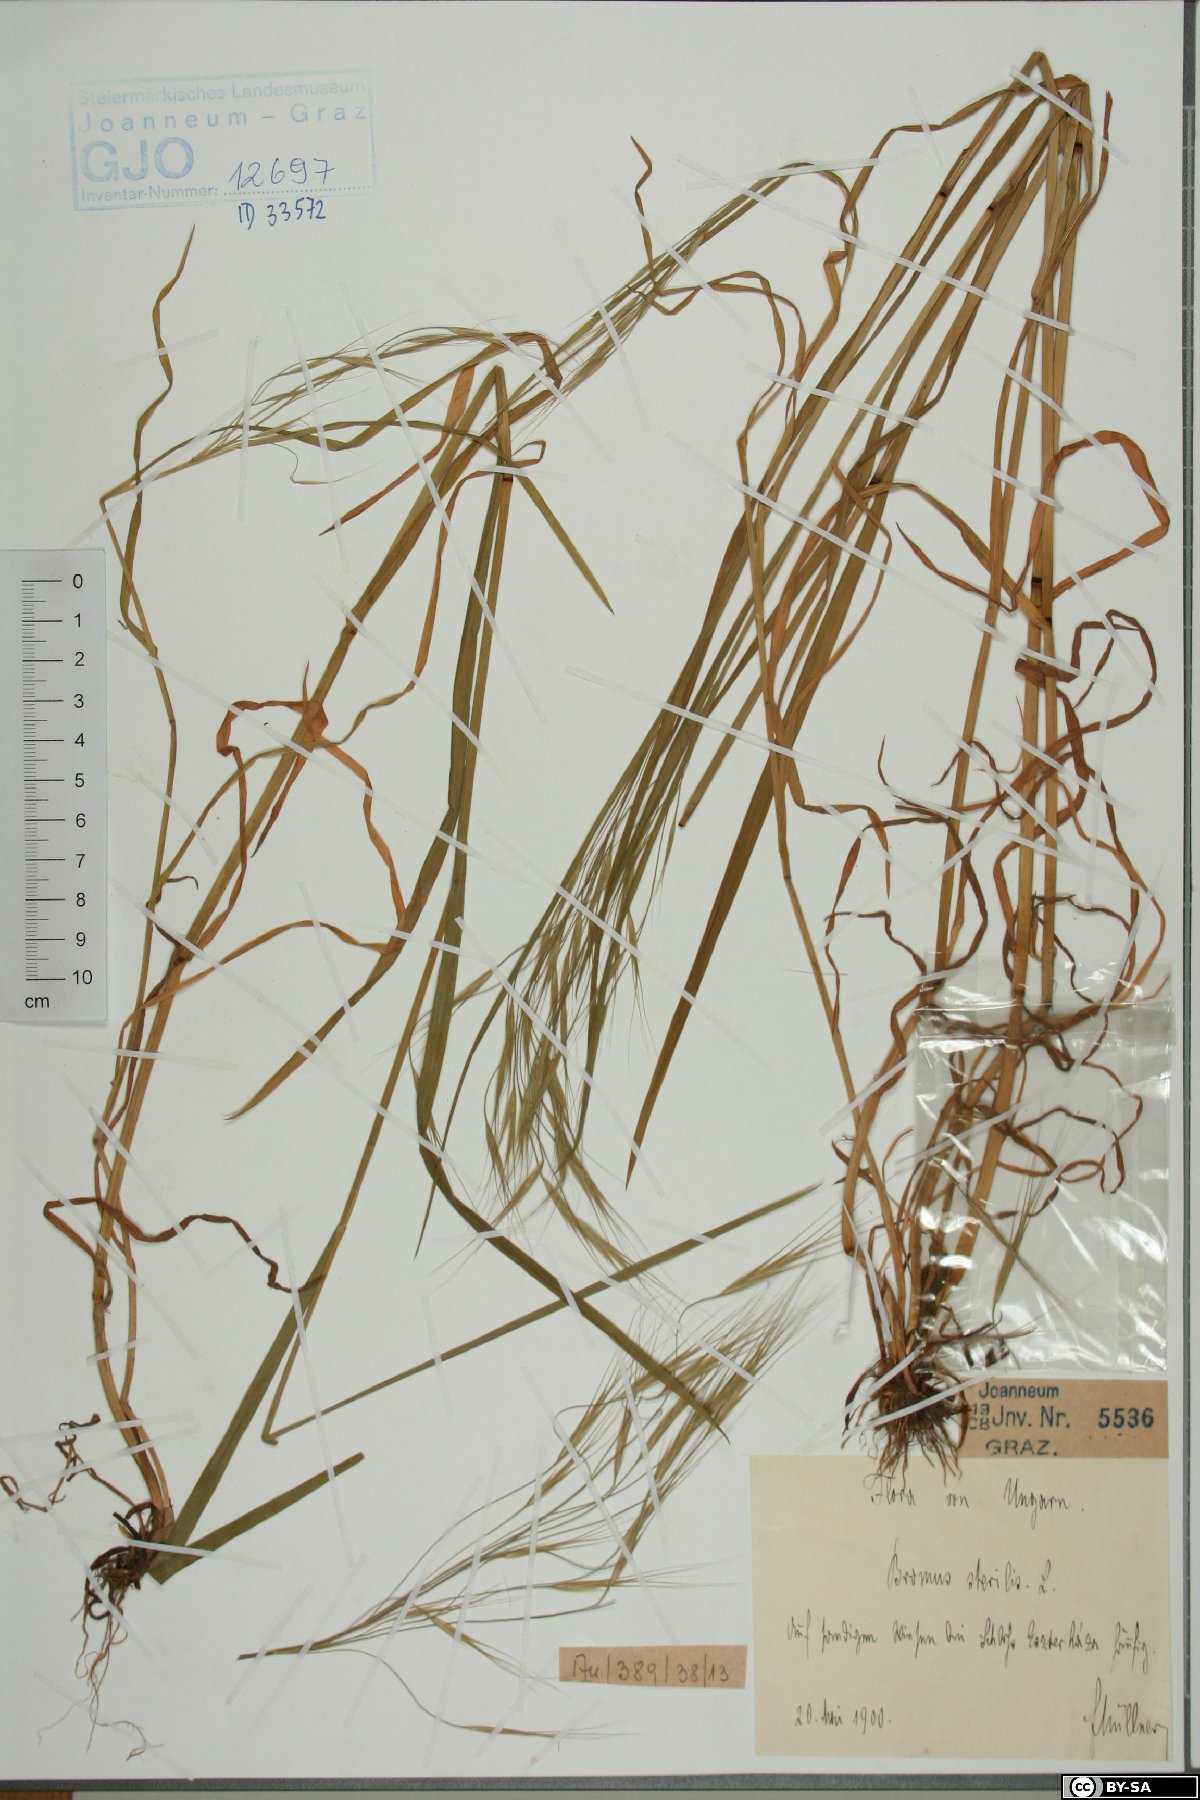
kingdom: Plantae
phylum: Tracheophyta
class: Liliopsida
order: Poales
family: Poaceae
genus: Bromus
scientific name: Bromus sterilis
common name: Poverty brome
